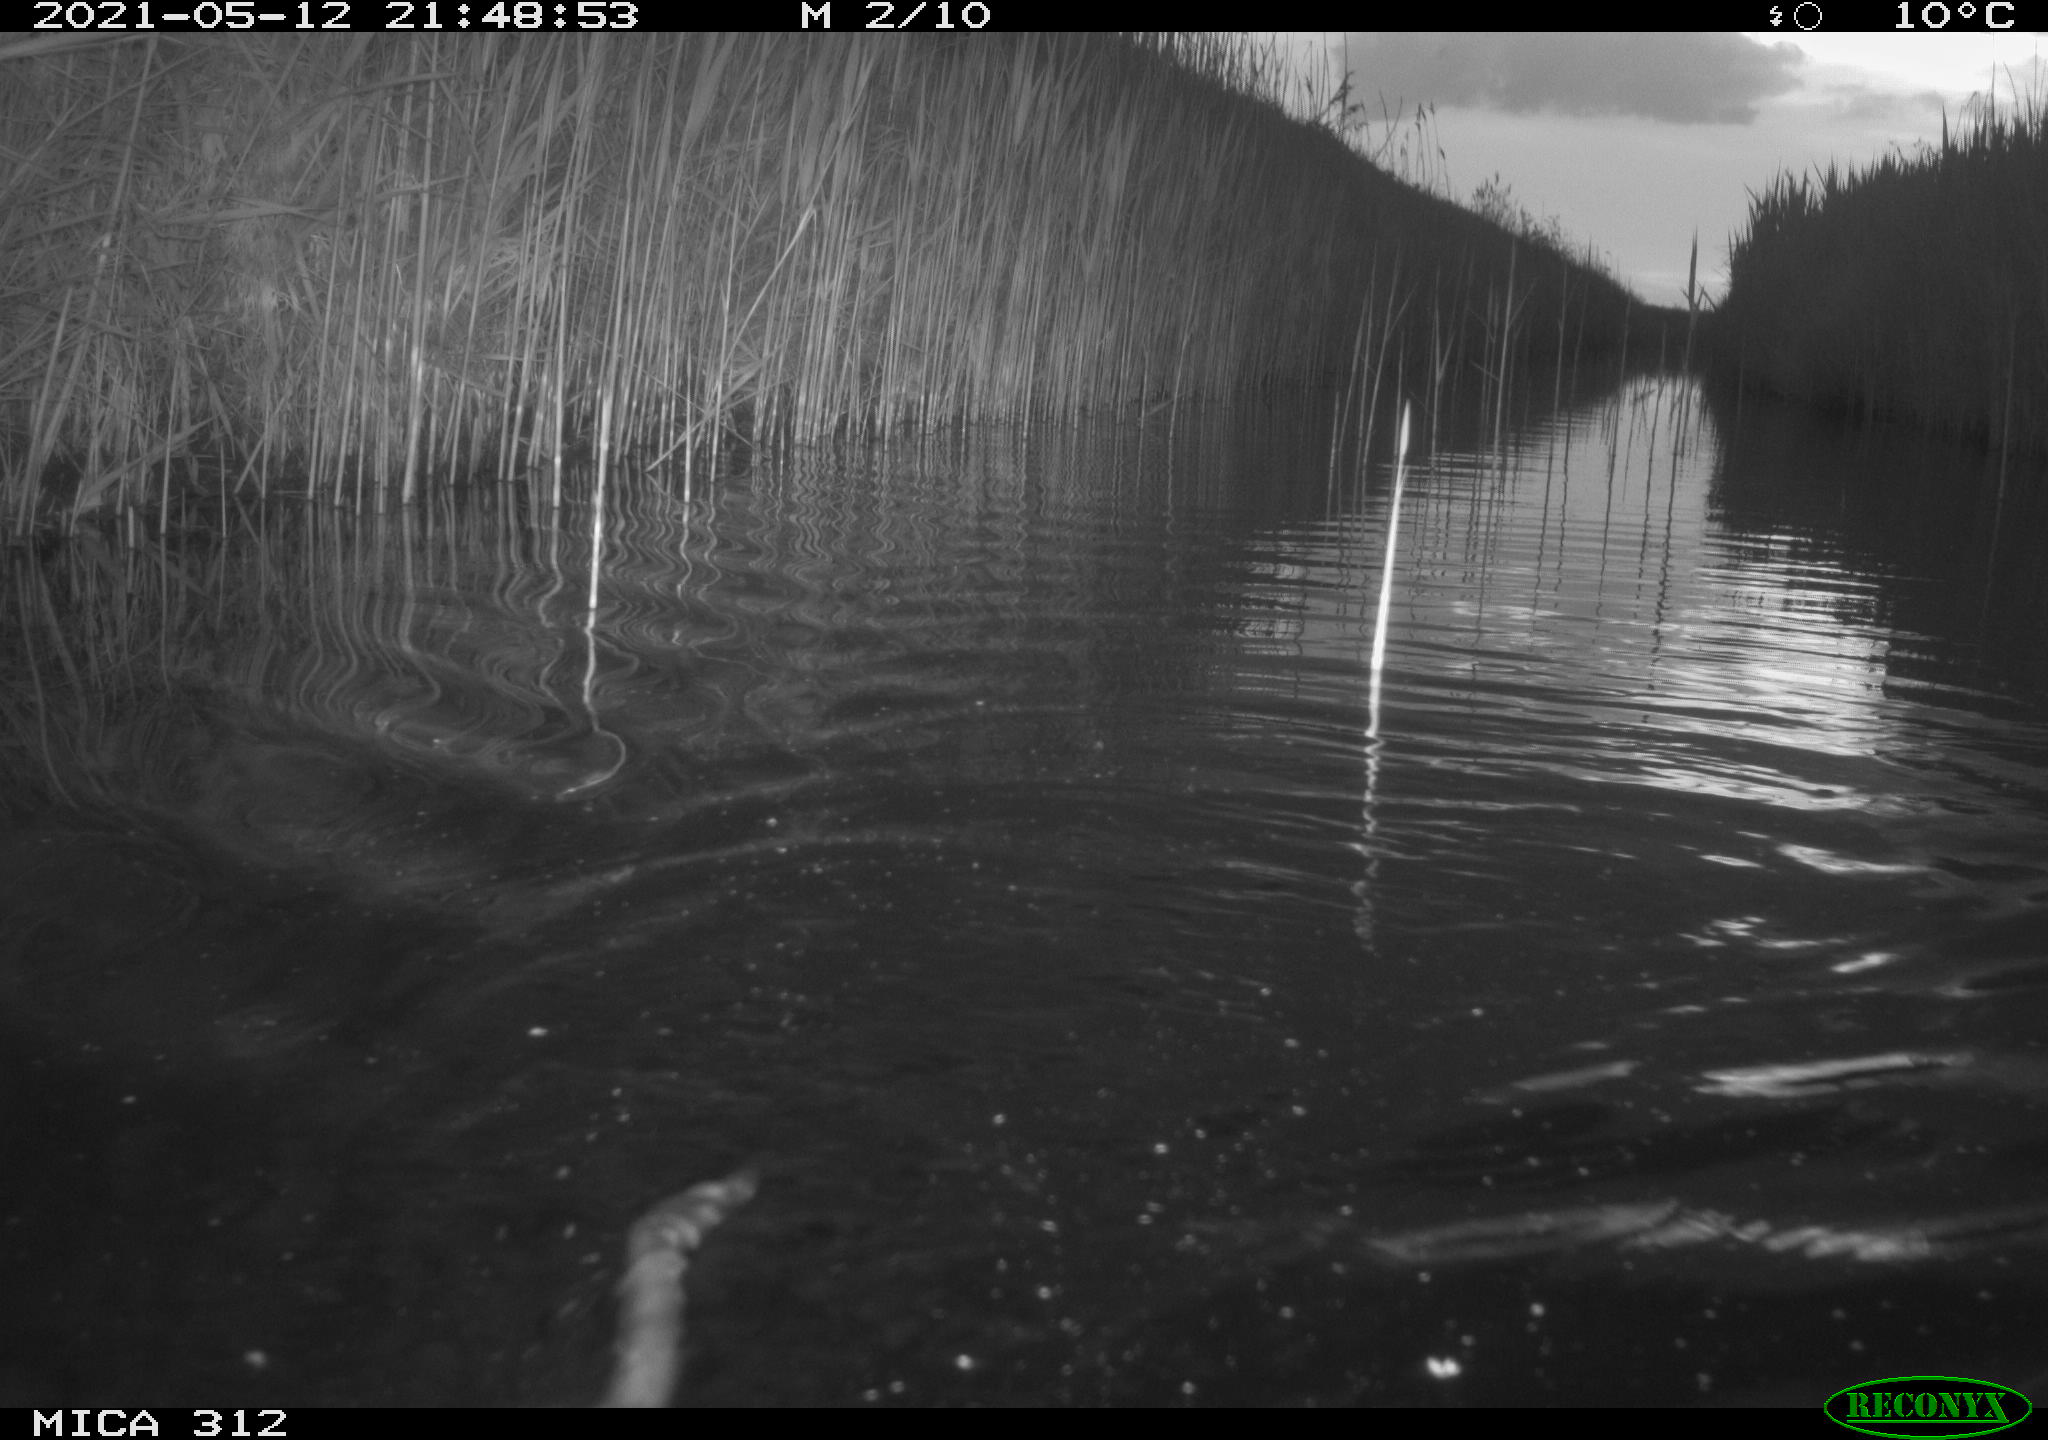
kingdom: Animalia
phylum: Chordata
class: Mammalia
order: Rodentia
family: Cricetidae
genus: Ondatra
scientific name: Ondatra zibethicus
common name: Muskrat
